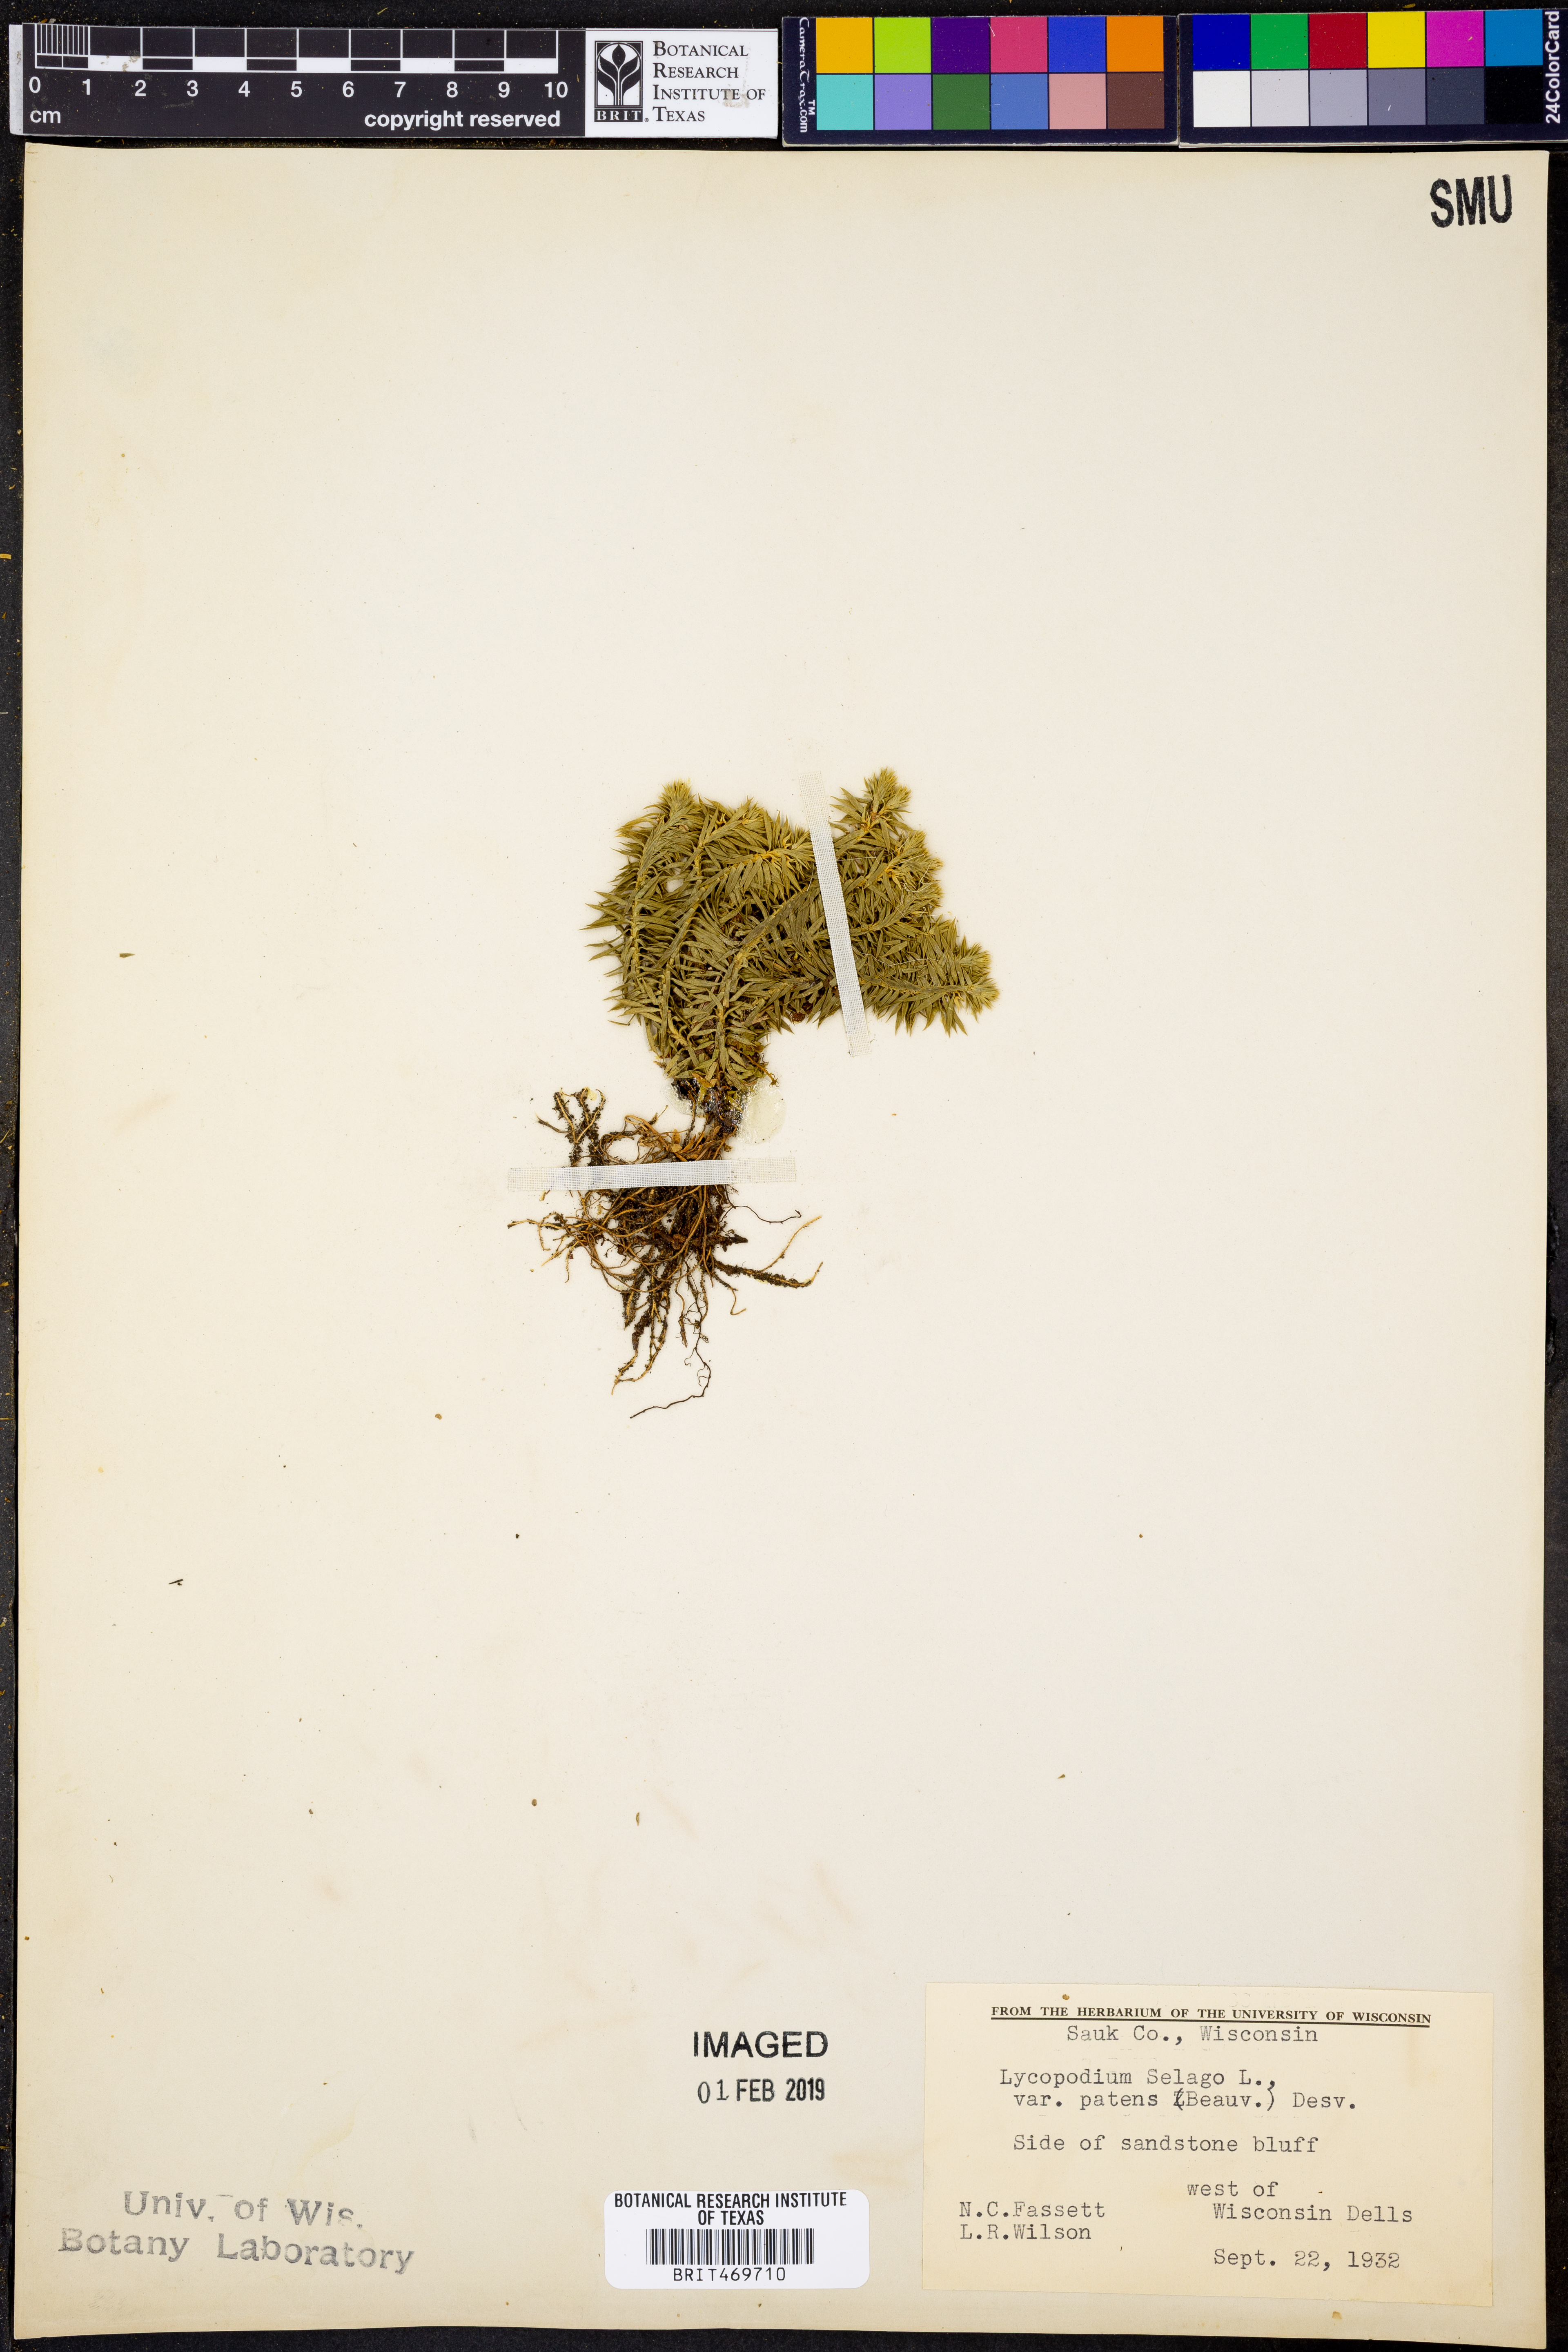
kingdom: Plantae
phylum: Tracheophyta
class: Lycopodiopsida
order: Lycopodiales
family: Lycopodiaceae
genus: Huperzia
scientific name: Huperzia selago
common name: Northern firmoss
